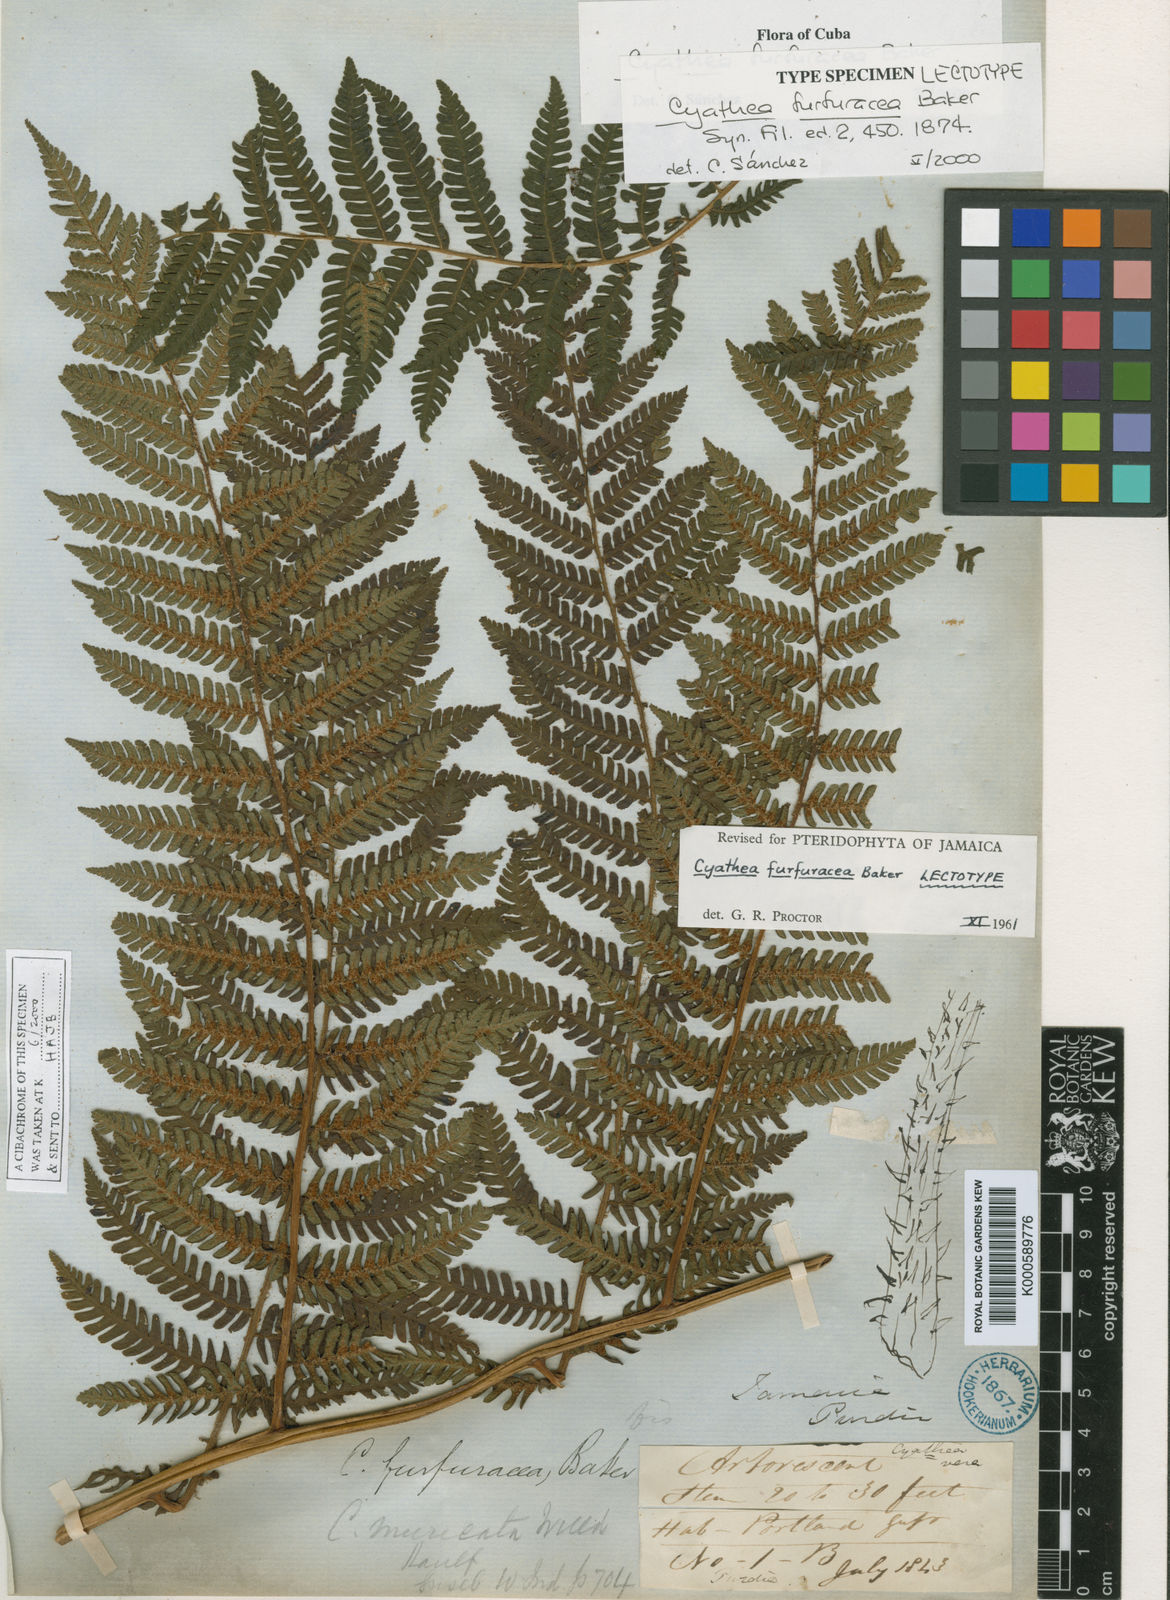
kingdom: Plantae
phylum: Tracheophyta
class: Polypodiopsida
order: Cyatheales
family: Cyatheaceae
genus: Alsophila
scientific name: Alsophila fulgens
